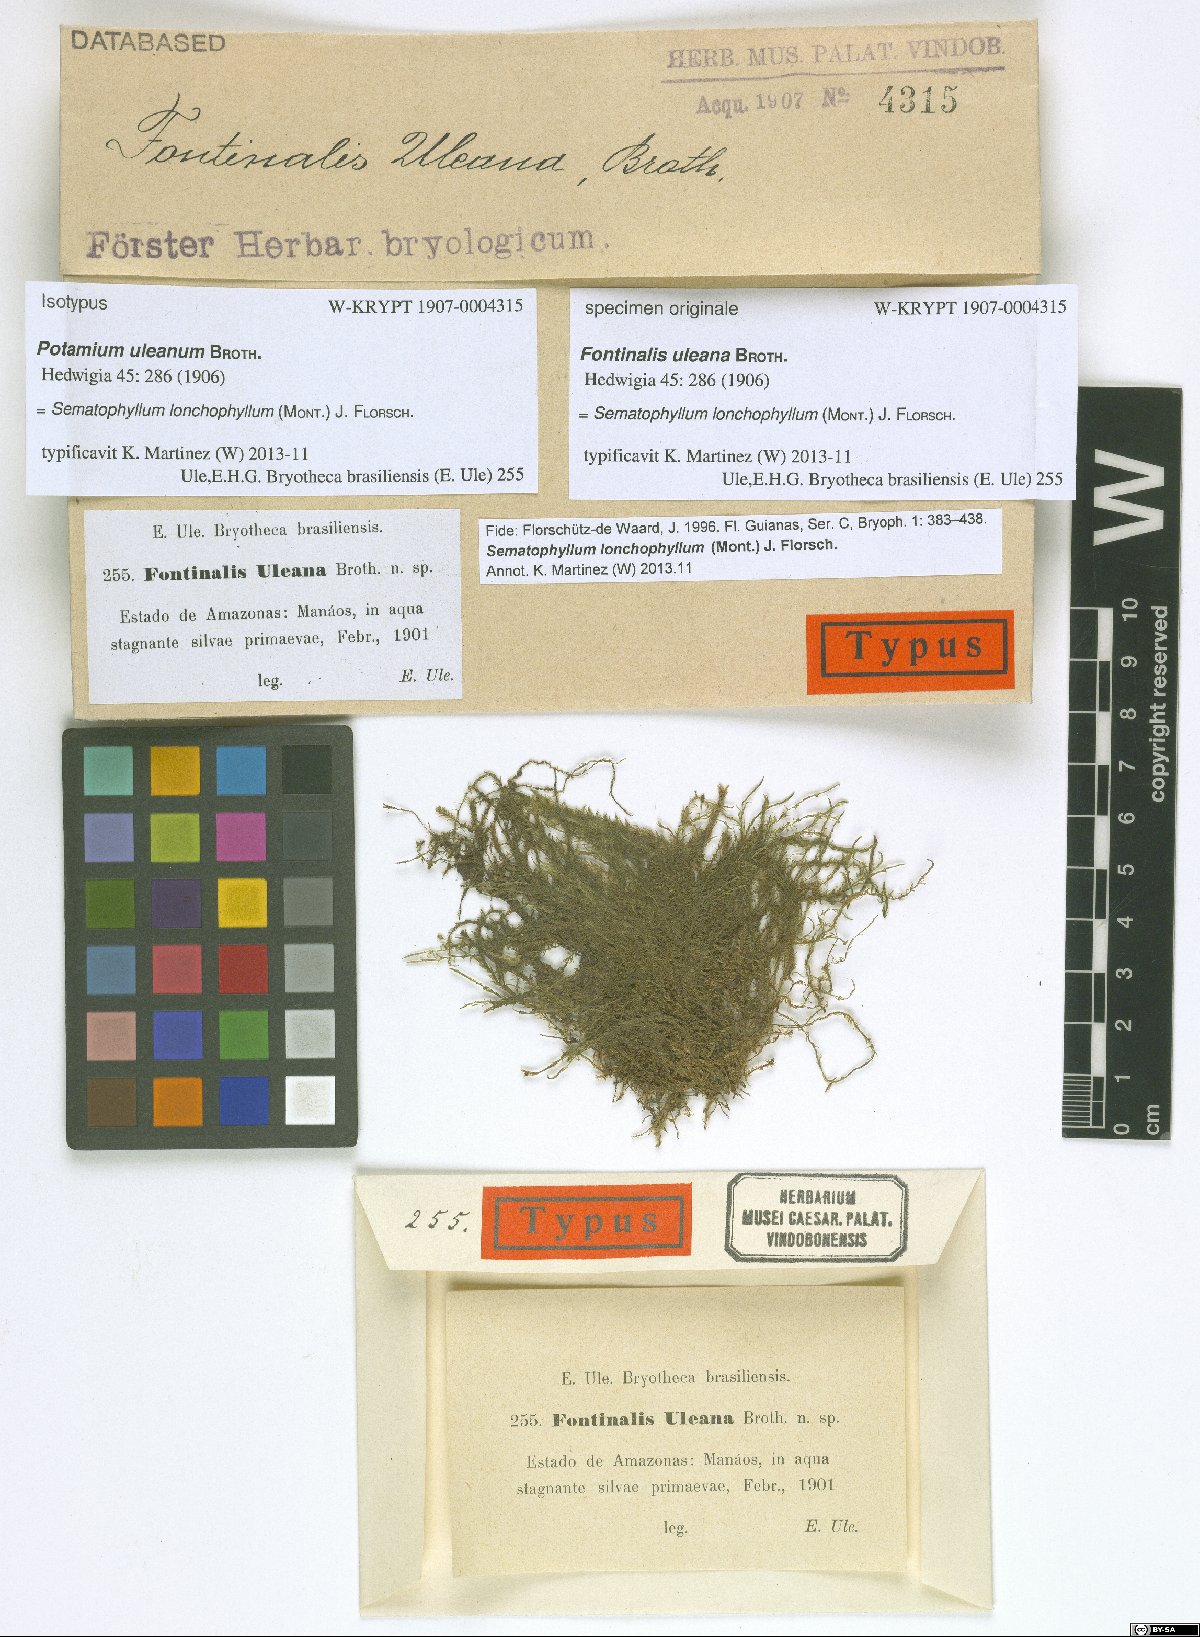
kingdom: Plantae
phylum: Bryophyta
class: Bryopsida
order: Hypnales
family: Sematophyllaceae
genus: Trichosteleum
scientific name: Trichosteleum lonchophyllum
